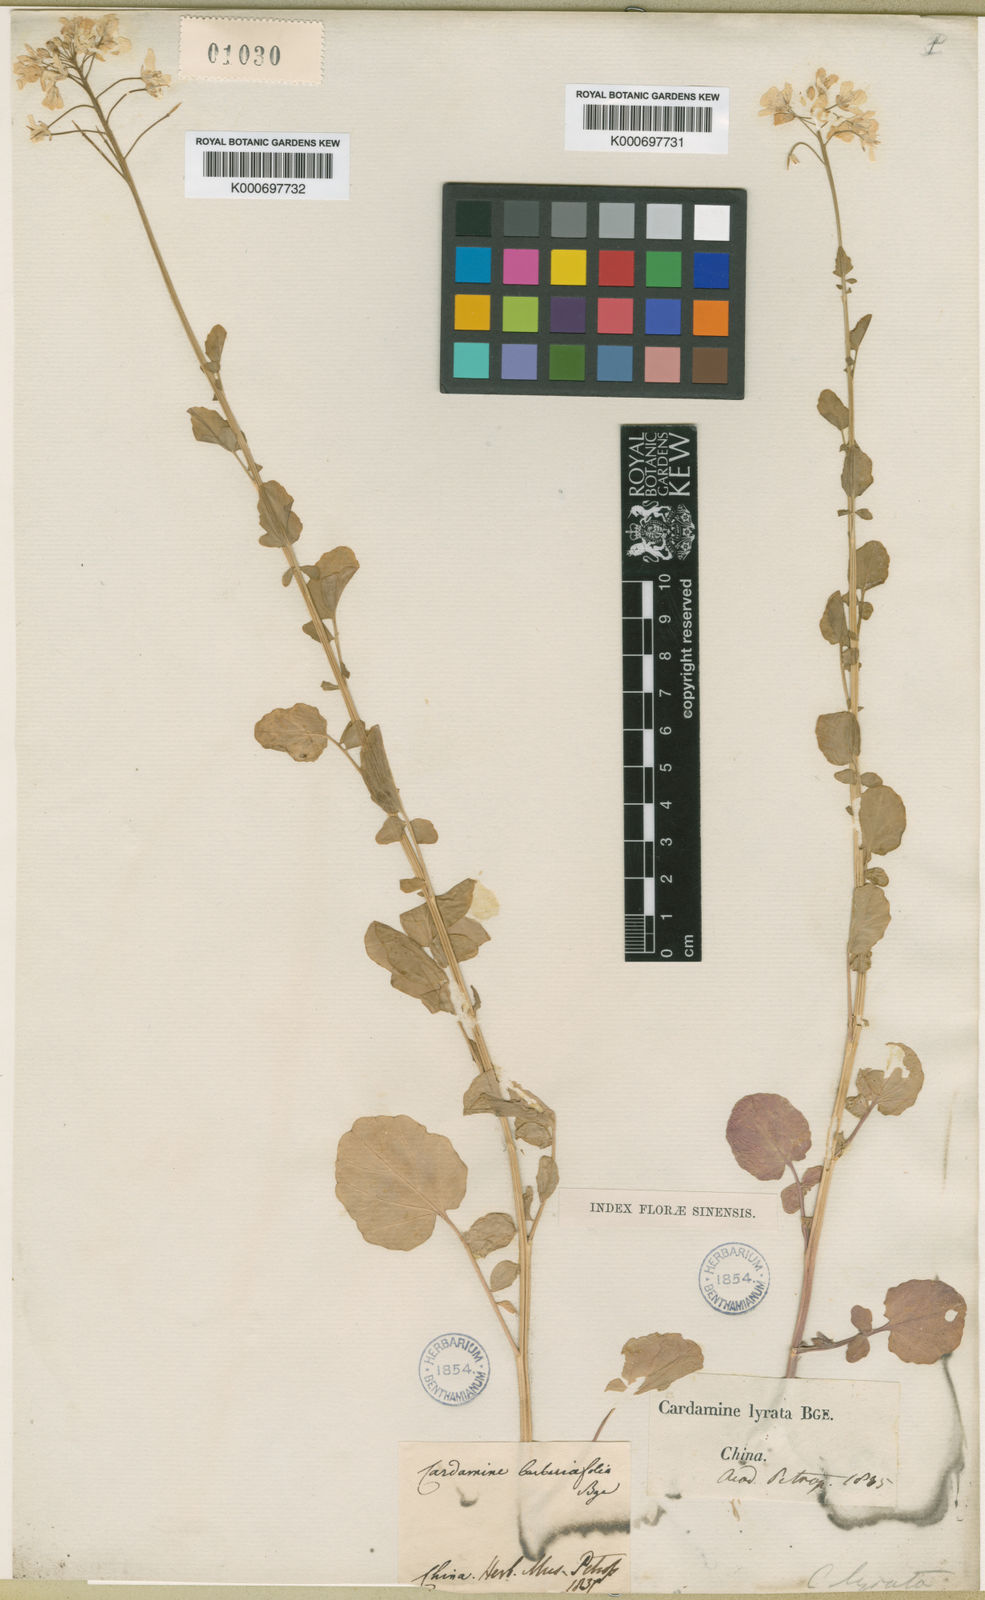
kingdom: Plantae
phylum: Tracheophyta
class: Magnoliopsida
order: Brassicales
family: Brassicaceae
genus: Cardamine
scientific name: Cardamine lyrata
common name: Chinese-ivy
